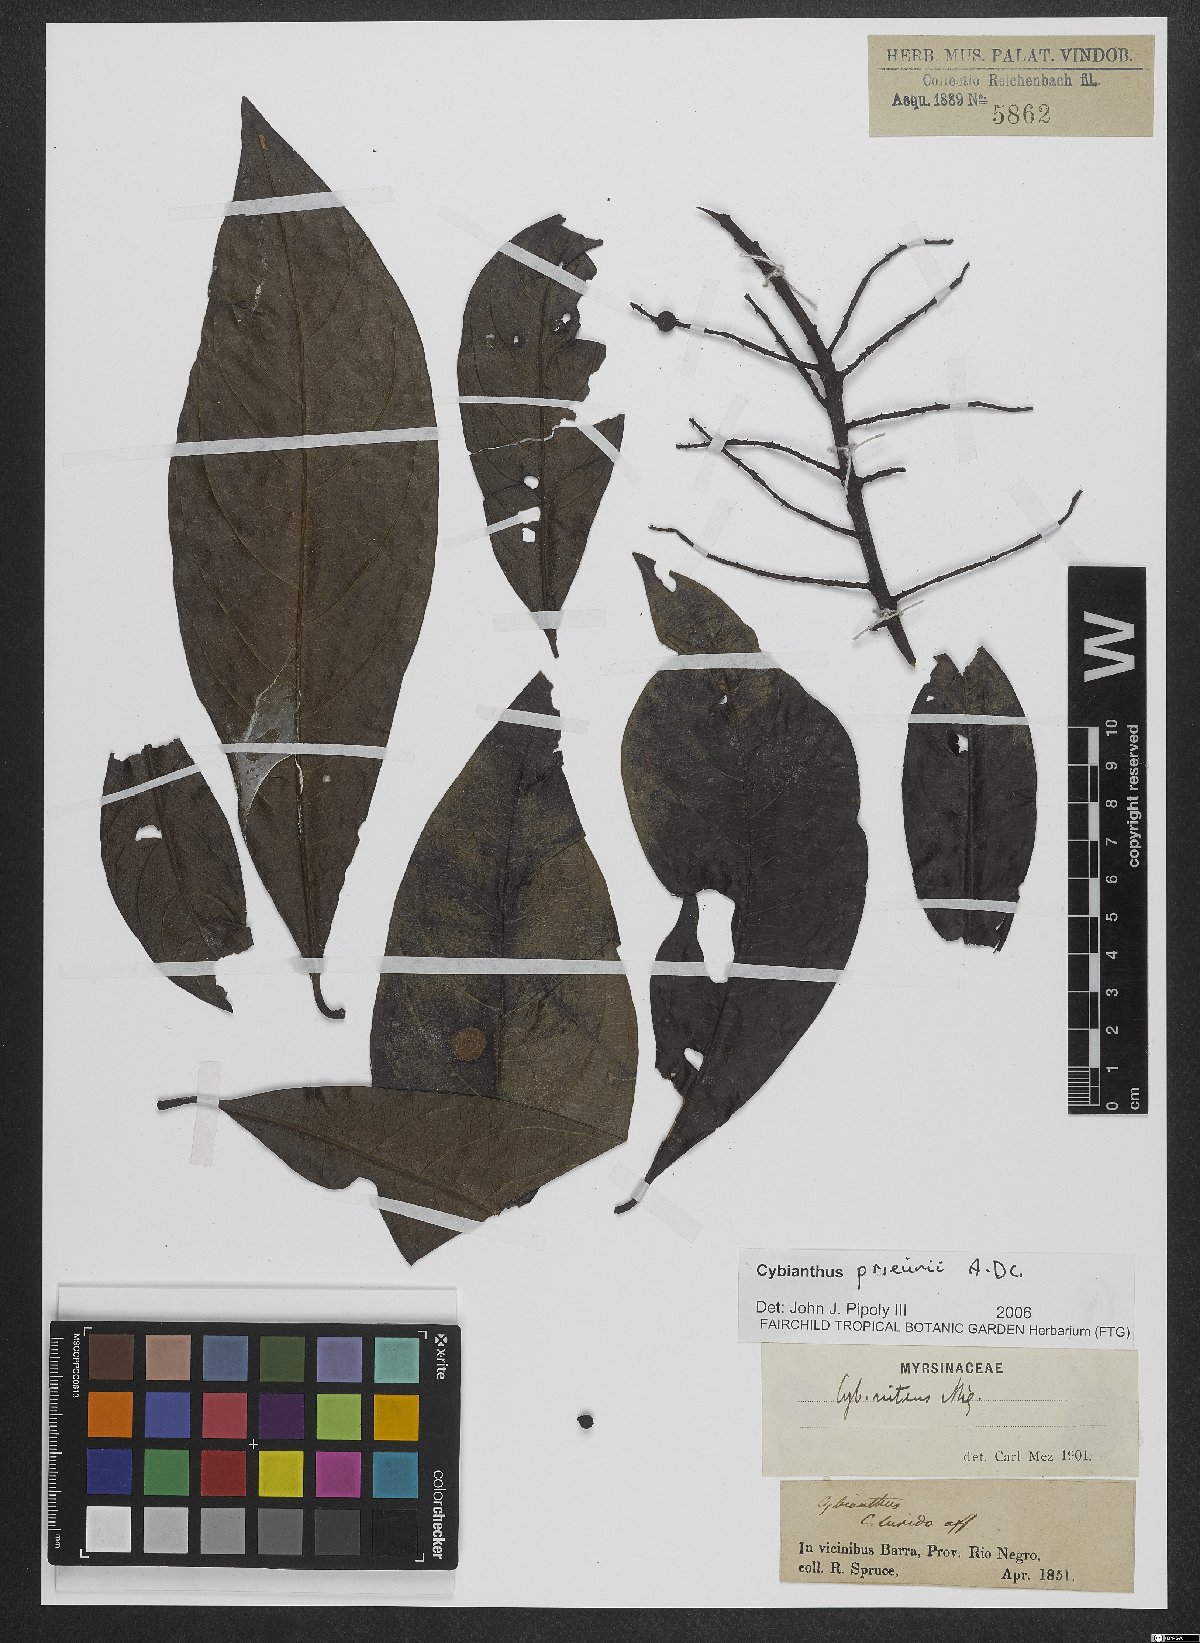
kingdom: Plantae
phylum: Tracheophyta
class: Magnoliopsida
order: Ericales
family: Primulaceae
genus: Cybianthus
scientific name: Cybianthus prieurii
